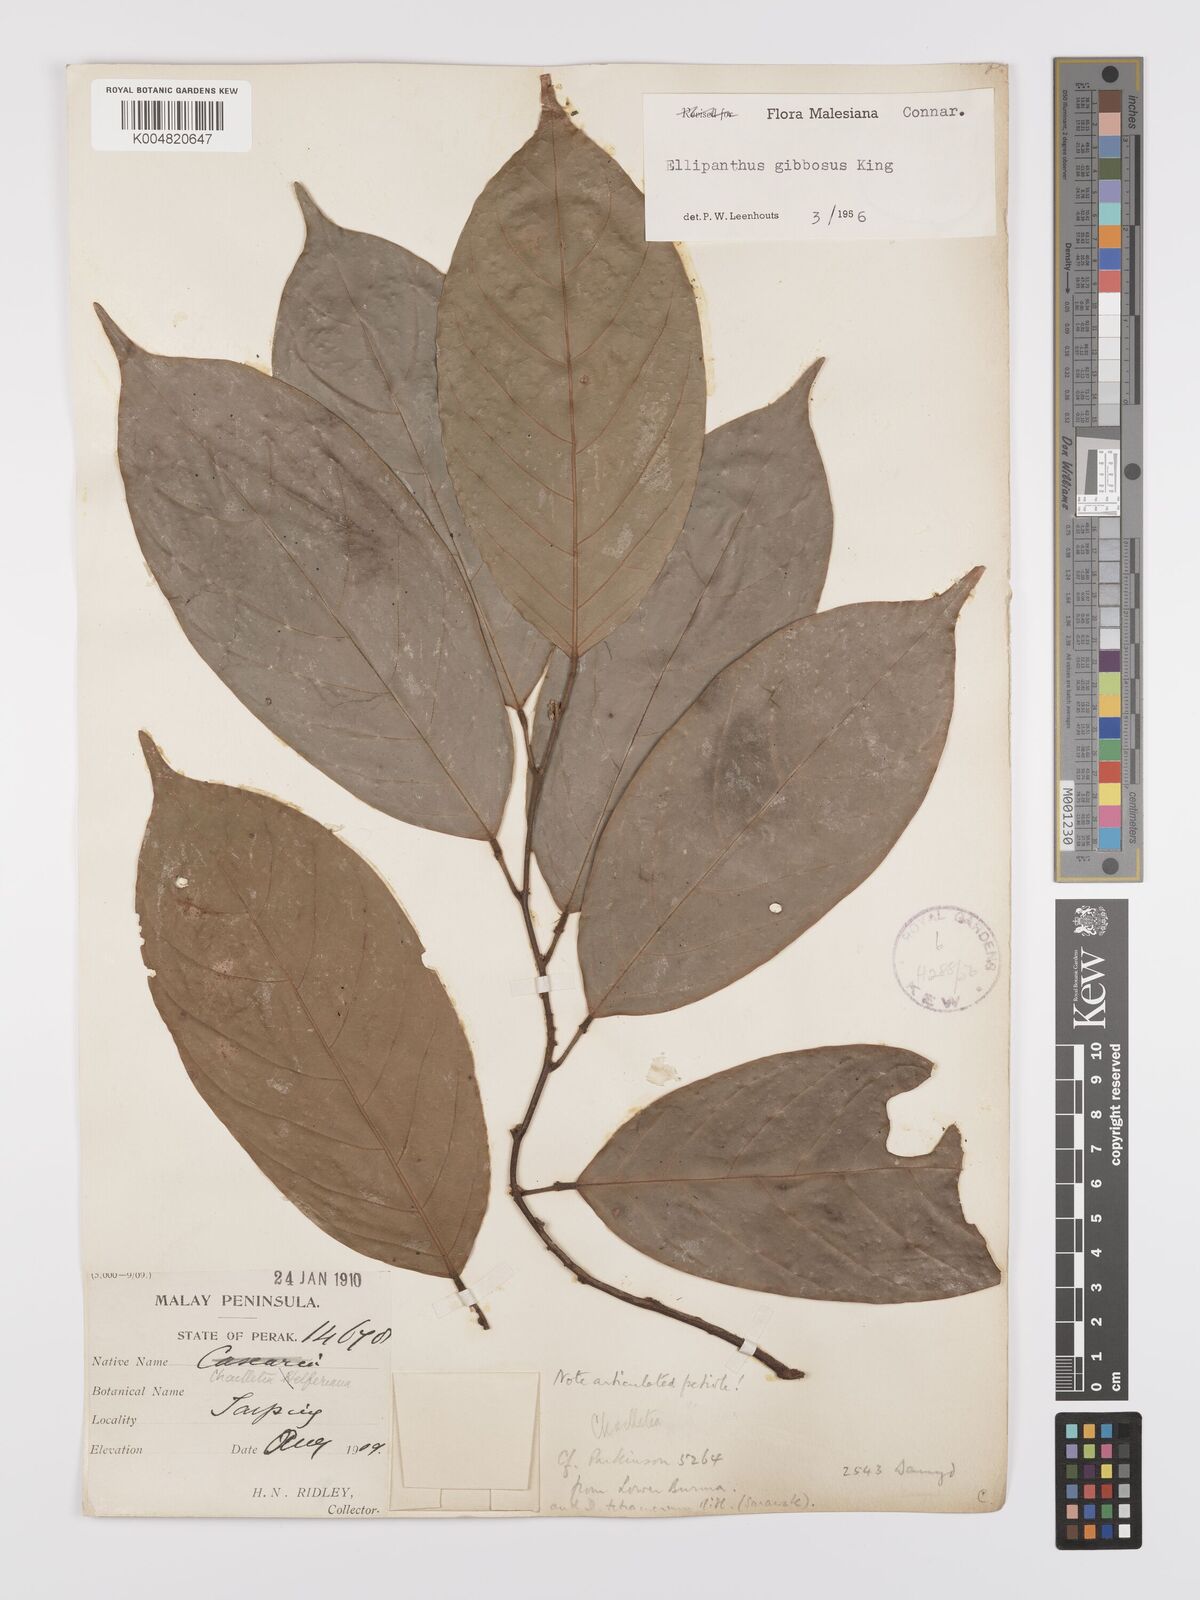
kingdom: Plantae
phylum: Tracheophyta
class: Magnoliopsida
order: Oxalidales
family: Connaraceae
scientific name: Connaraceae
